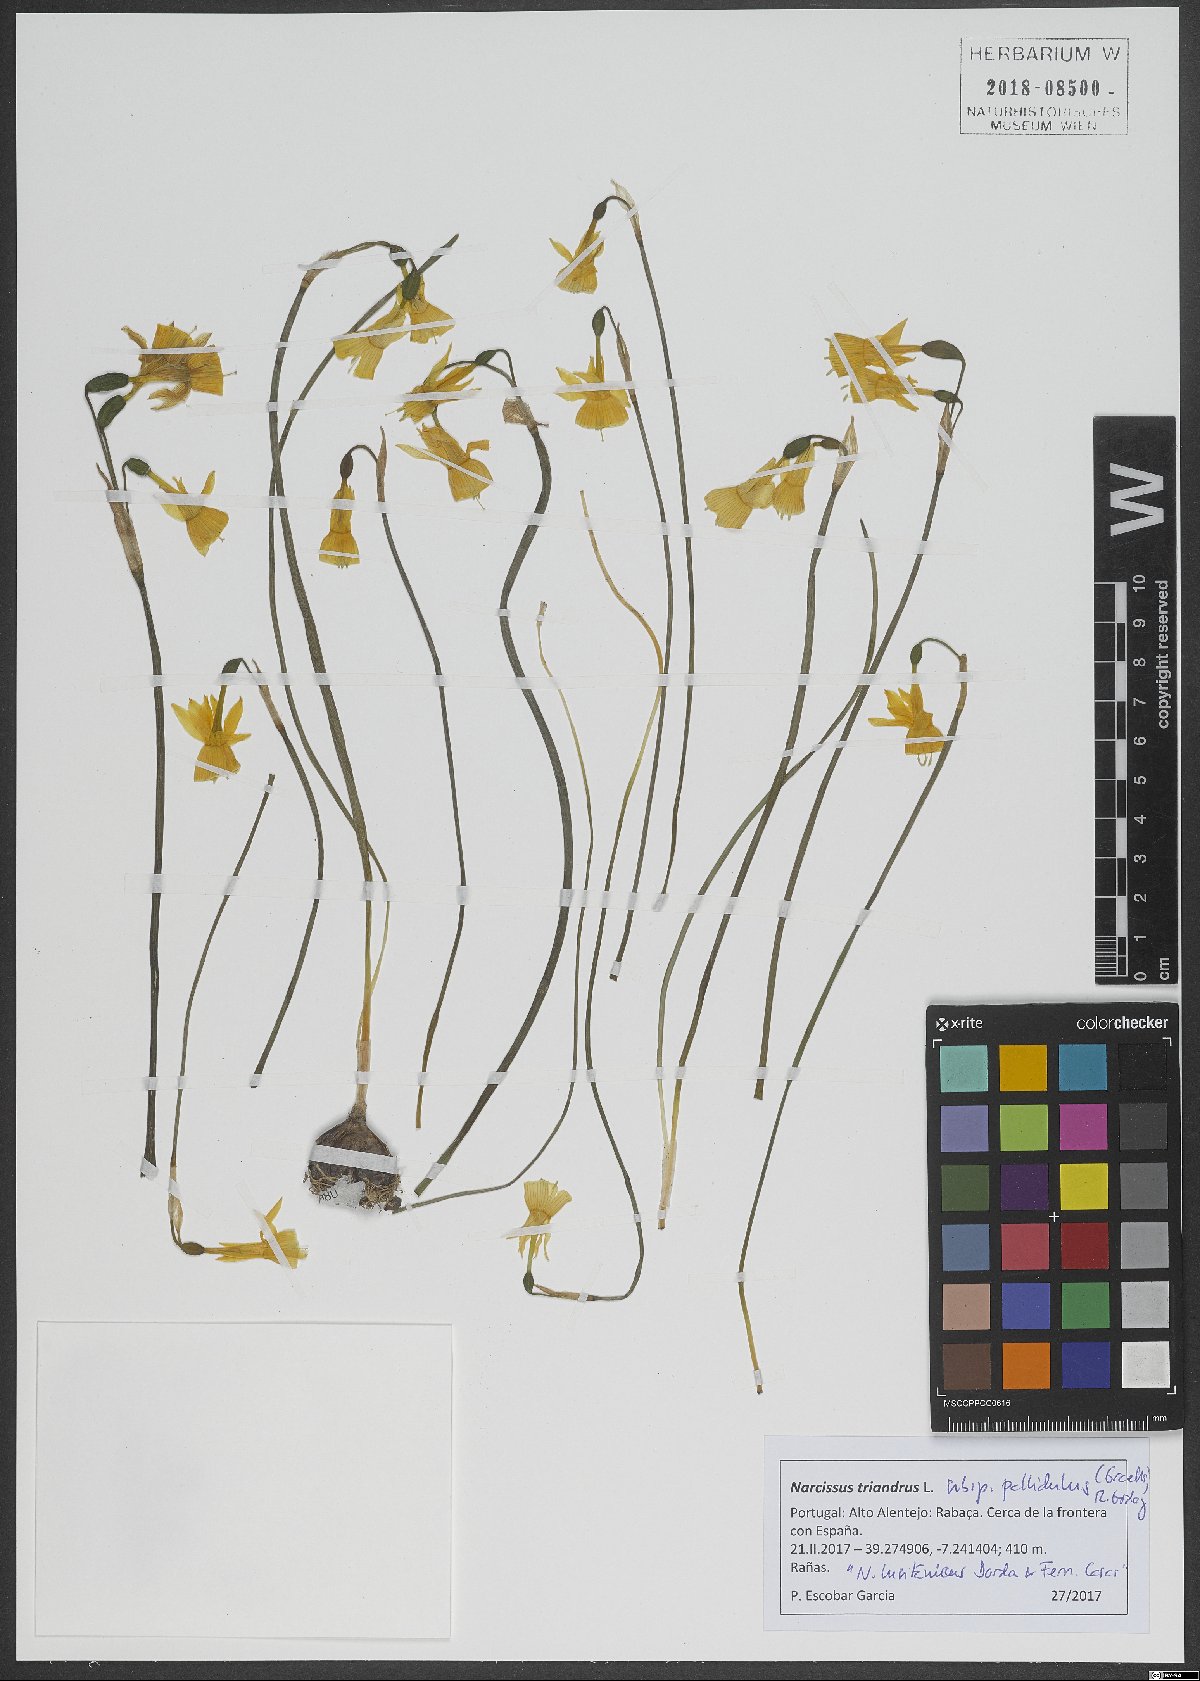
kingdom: Plantae
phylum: Tracheophyta
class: Liliopsida
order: Asparagales
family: Amaryllidaceae
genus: Narcissus
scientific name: Narcissus triandrus
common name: Angel's-tears
